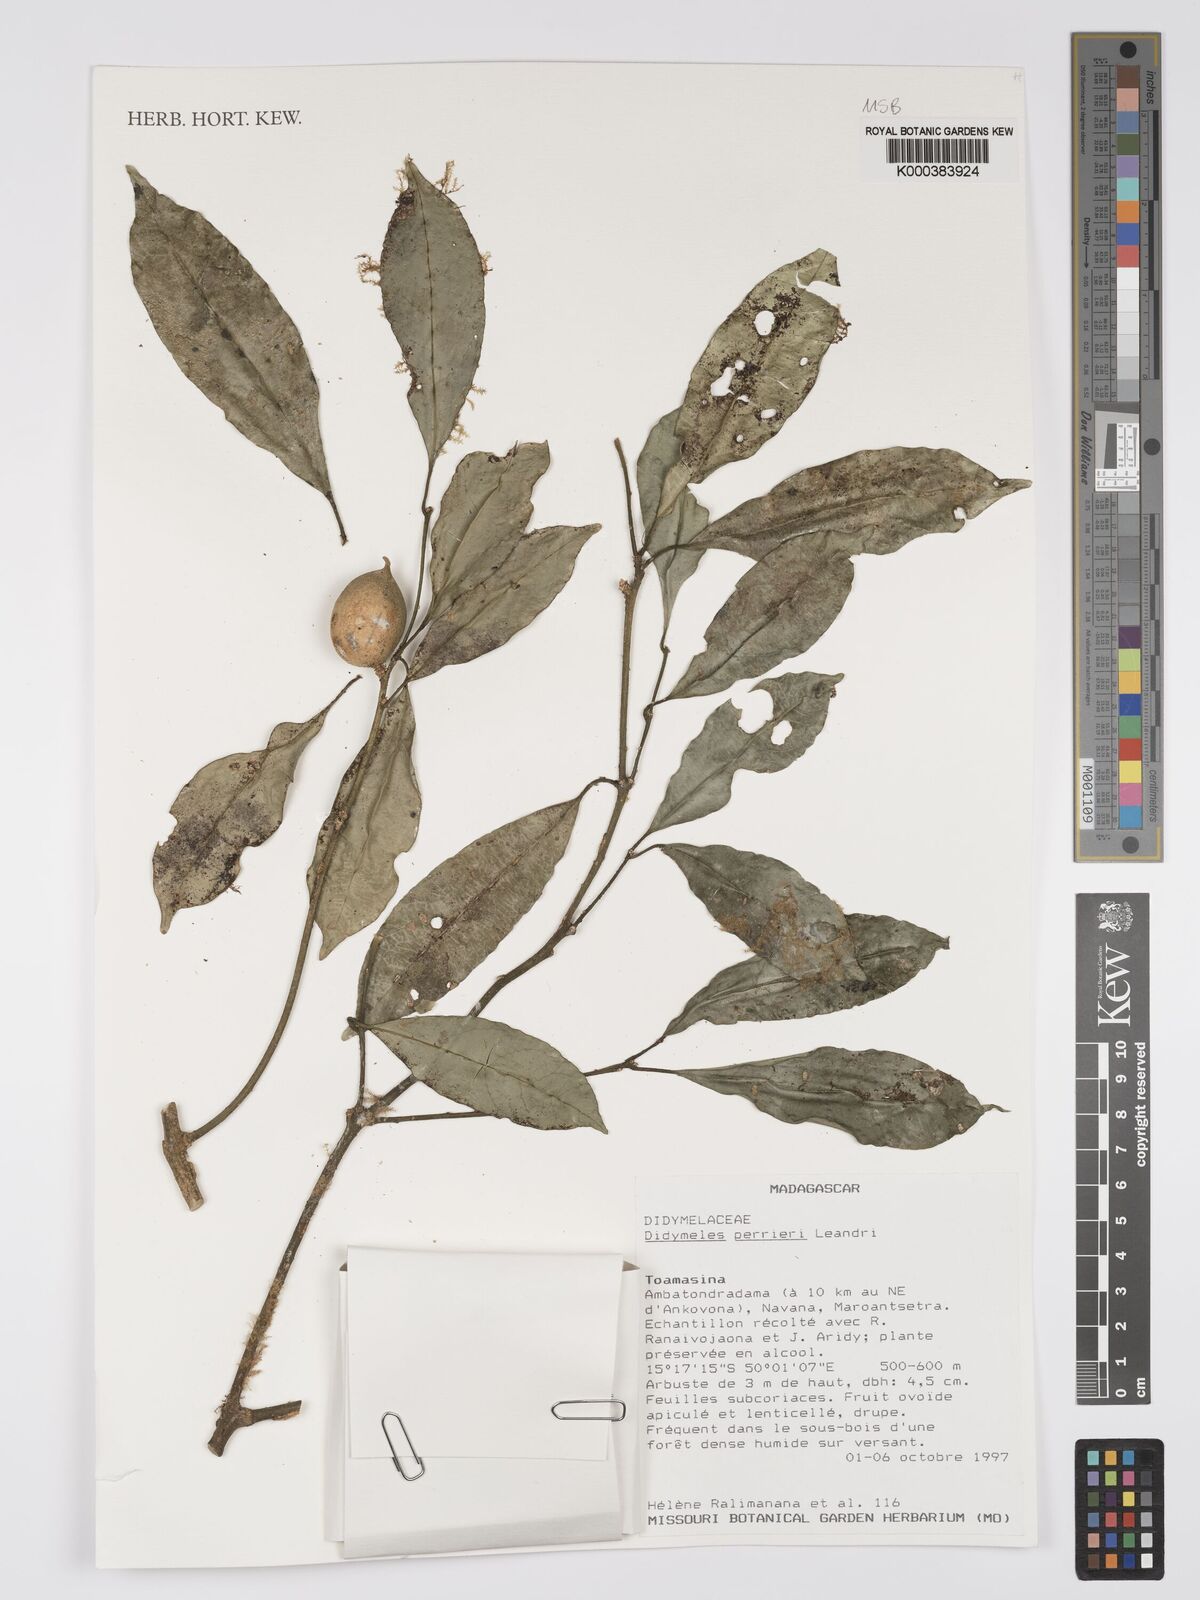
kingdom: Plantae
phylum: Tracheophyta
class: Magnoliopsida
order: Buxales
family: Buxaceae
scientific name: Buxaceae
